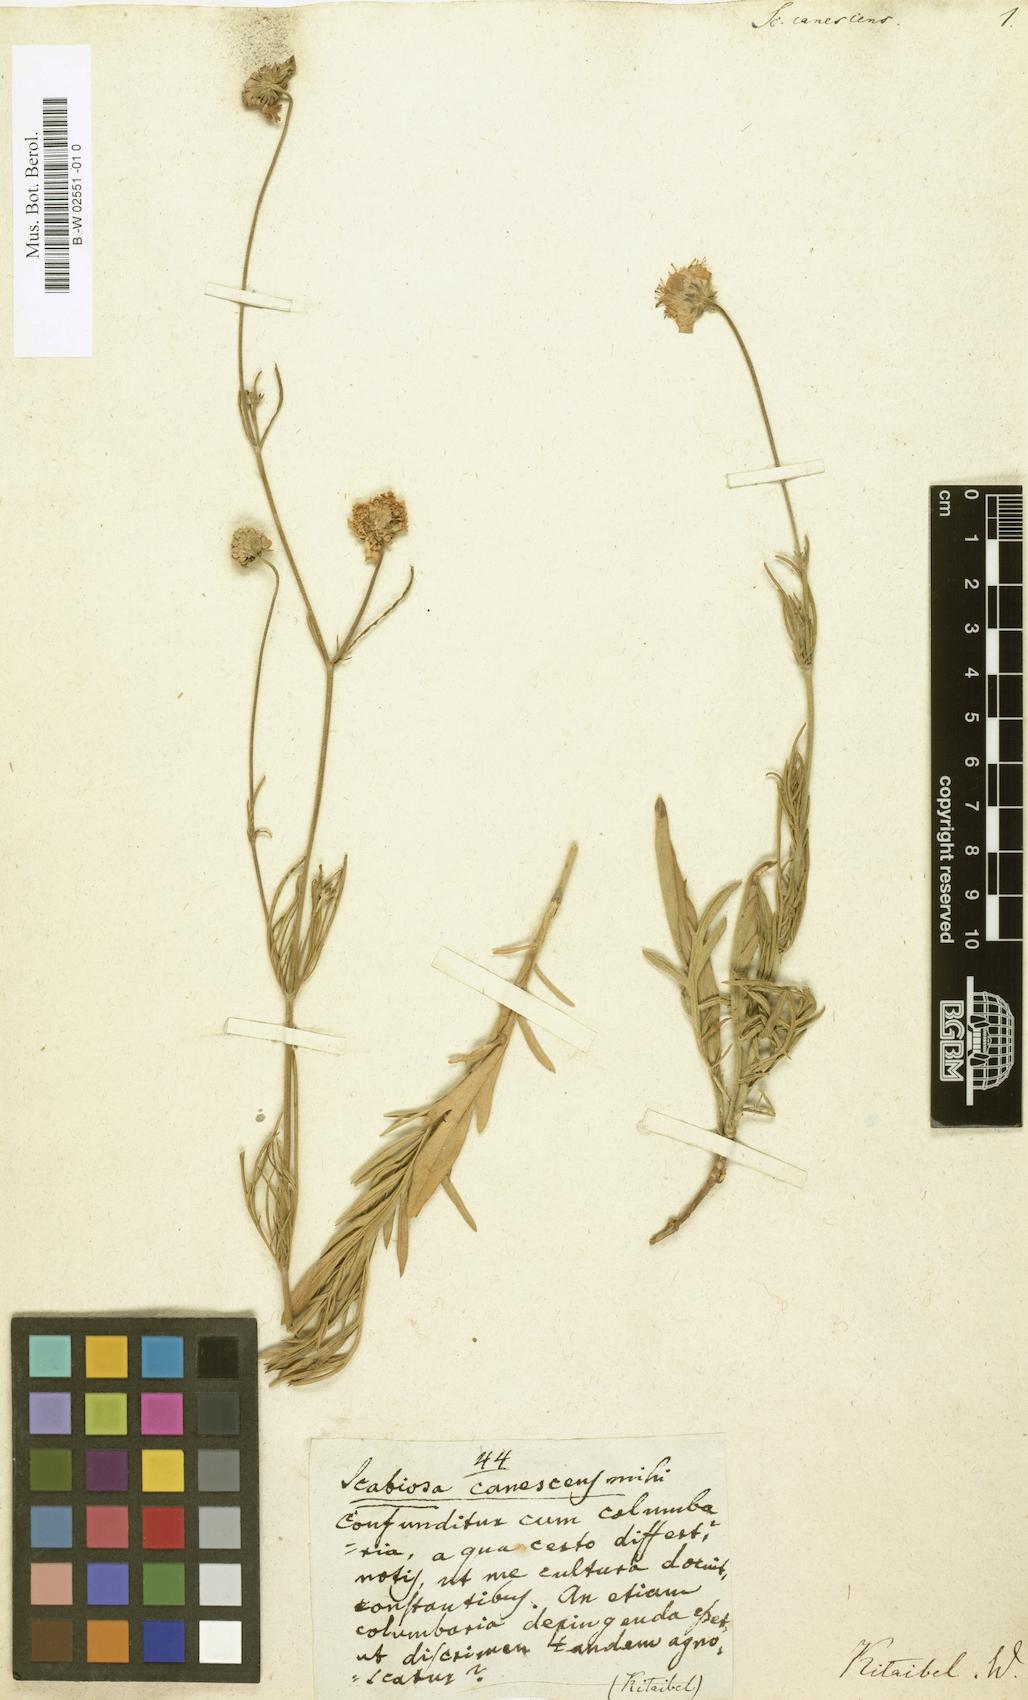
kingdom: Plantae
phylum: Tracheophyta
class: Magnoliopsida
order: Dipsacales
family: Caprifoliaceae
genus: Scabiosa
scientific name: Scabiosa canescens
